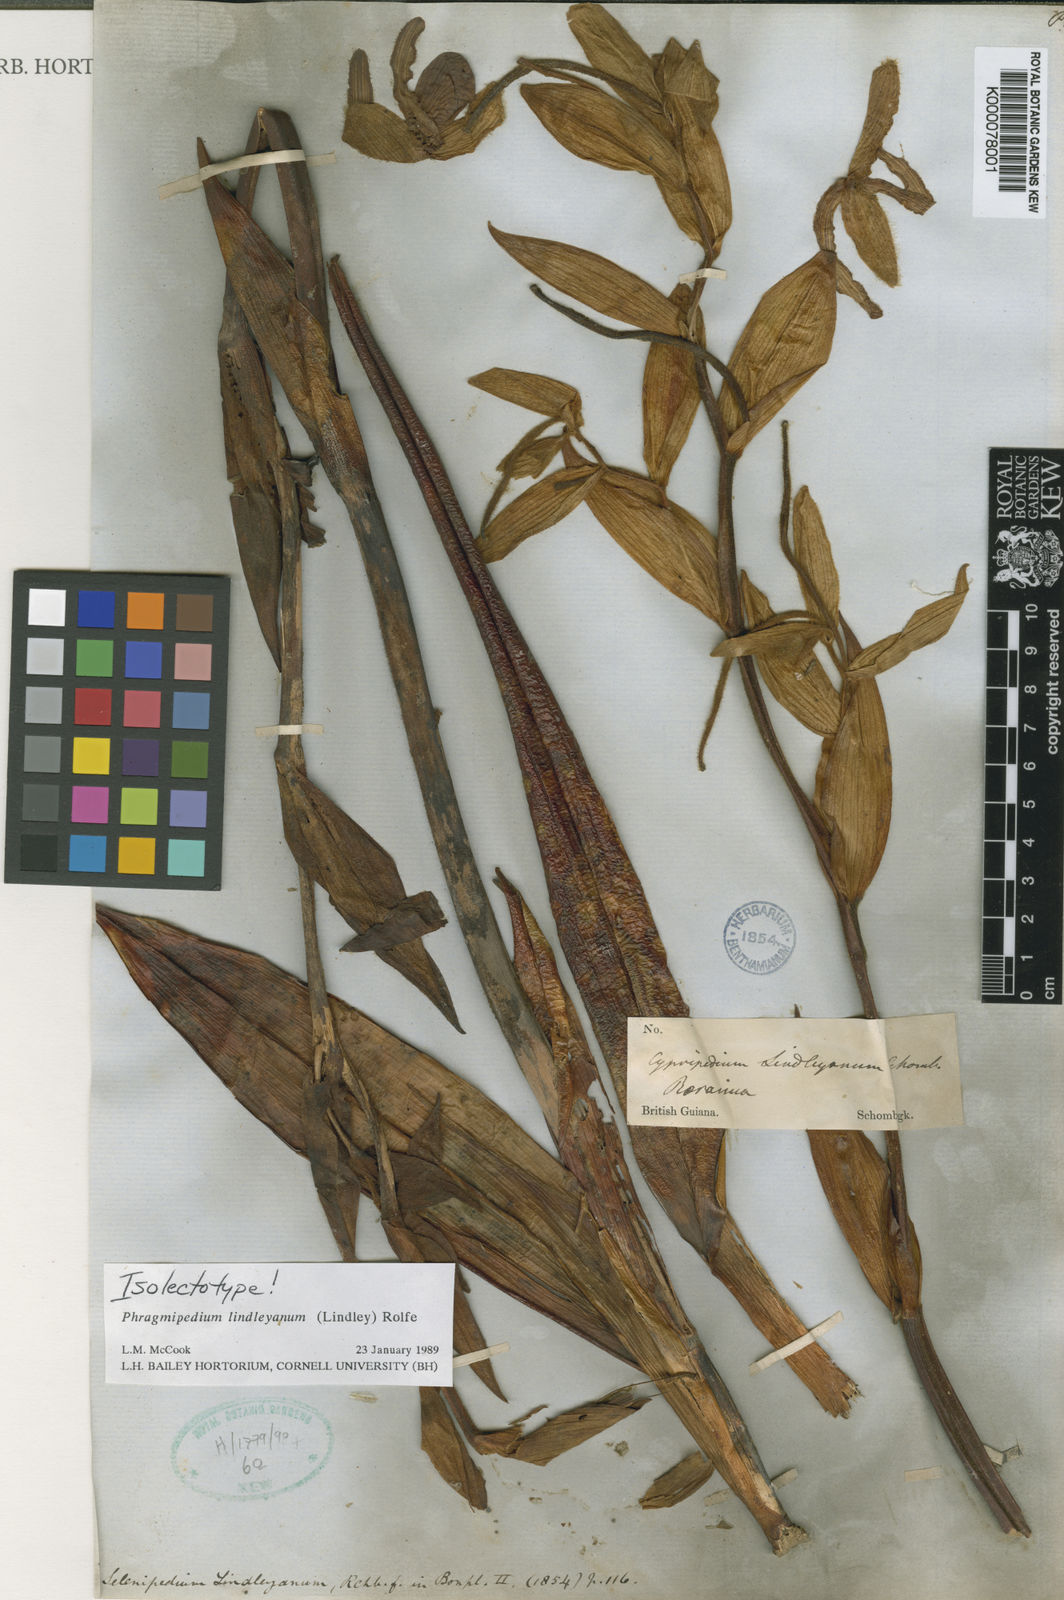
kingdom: Plantae
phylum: Tracheophyta
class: Liliopsida
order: Asparagales
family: Orchidaceae
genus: Phragmipaphium
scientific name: Phragmipaphium
